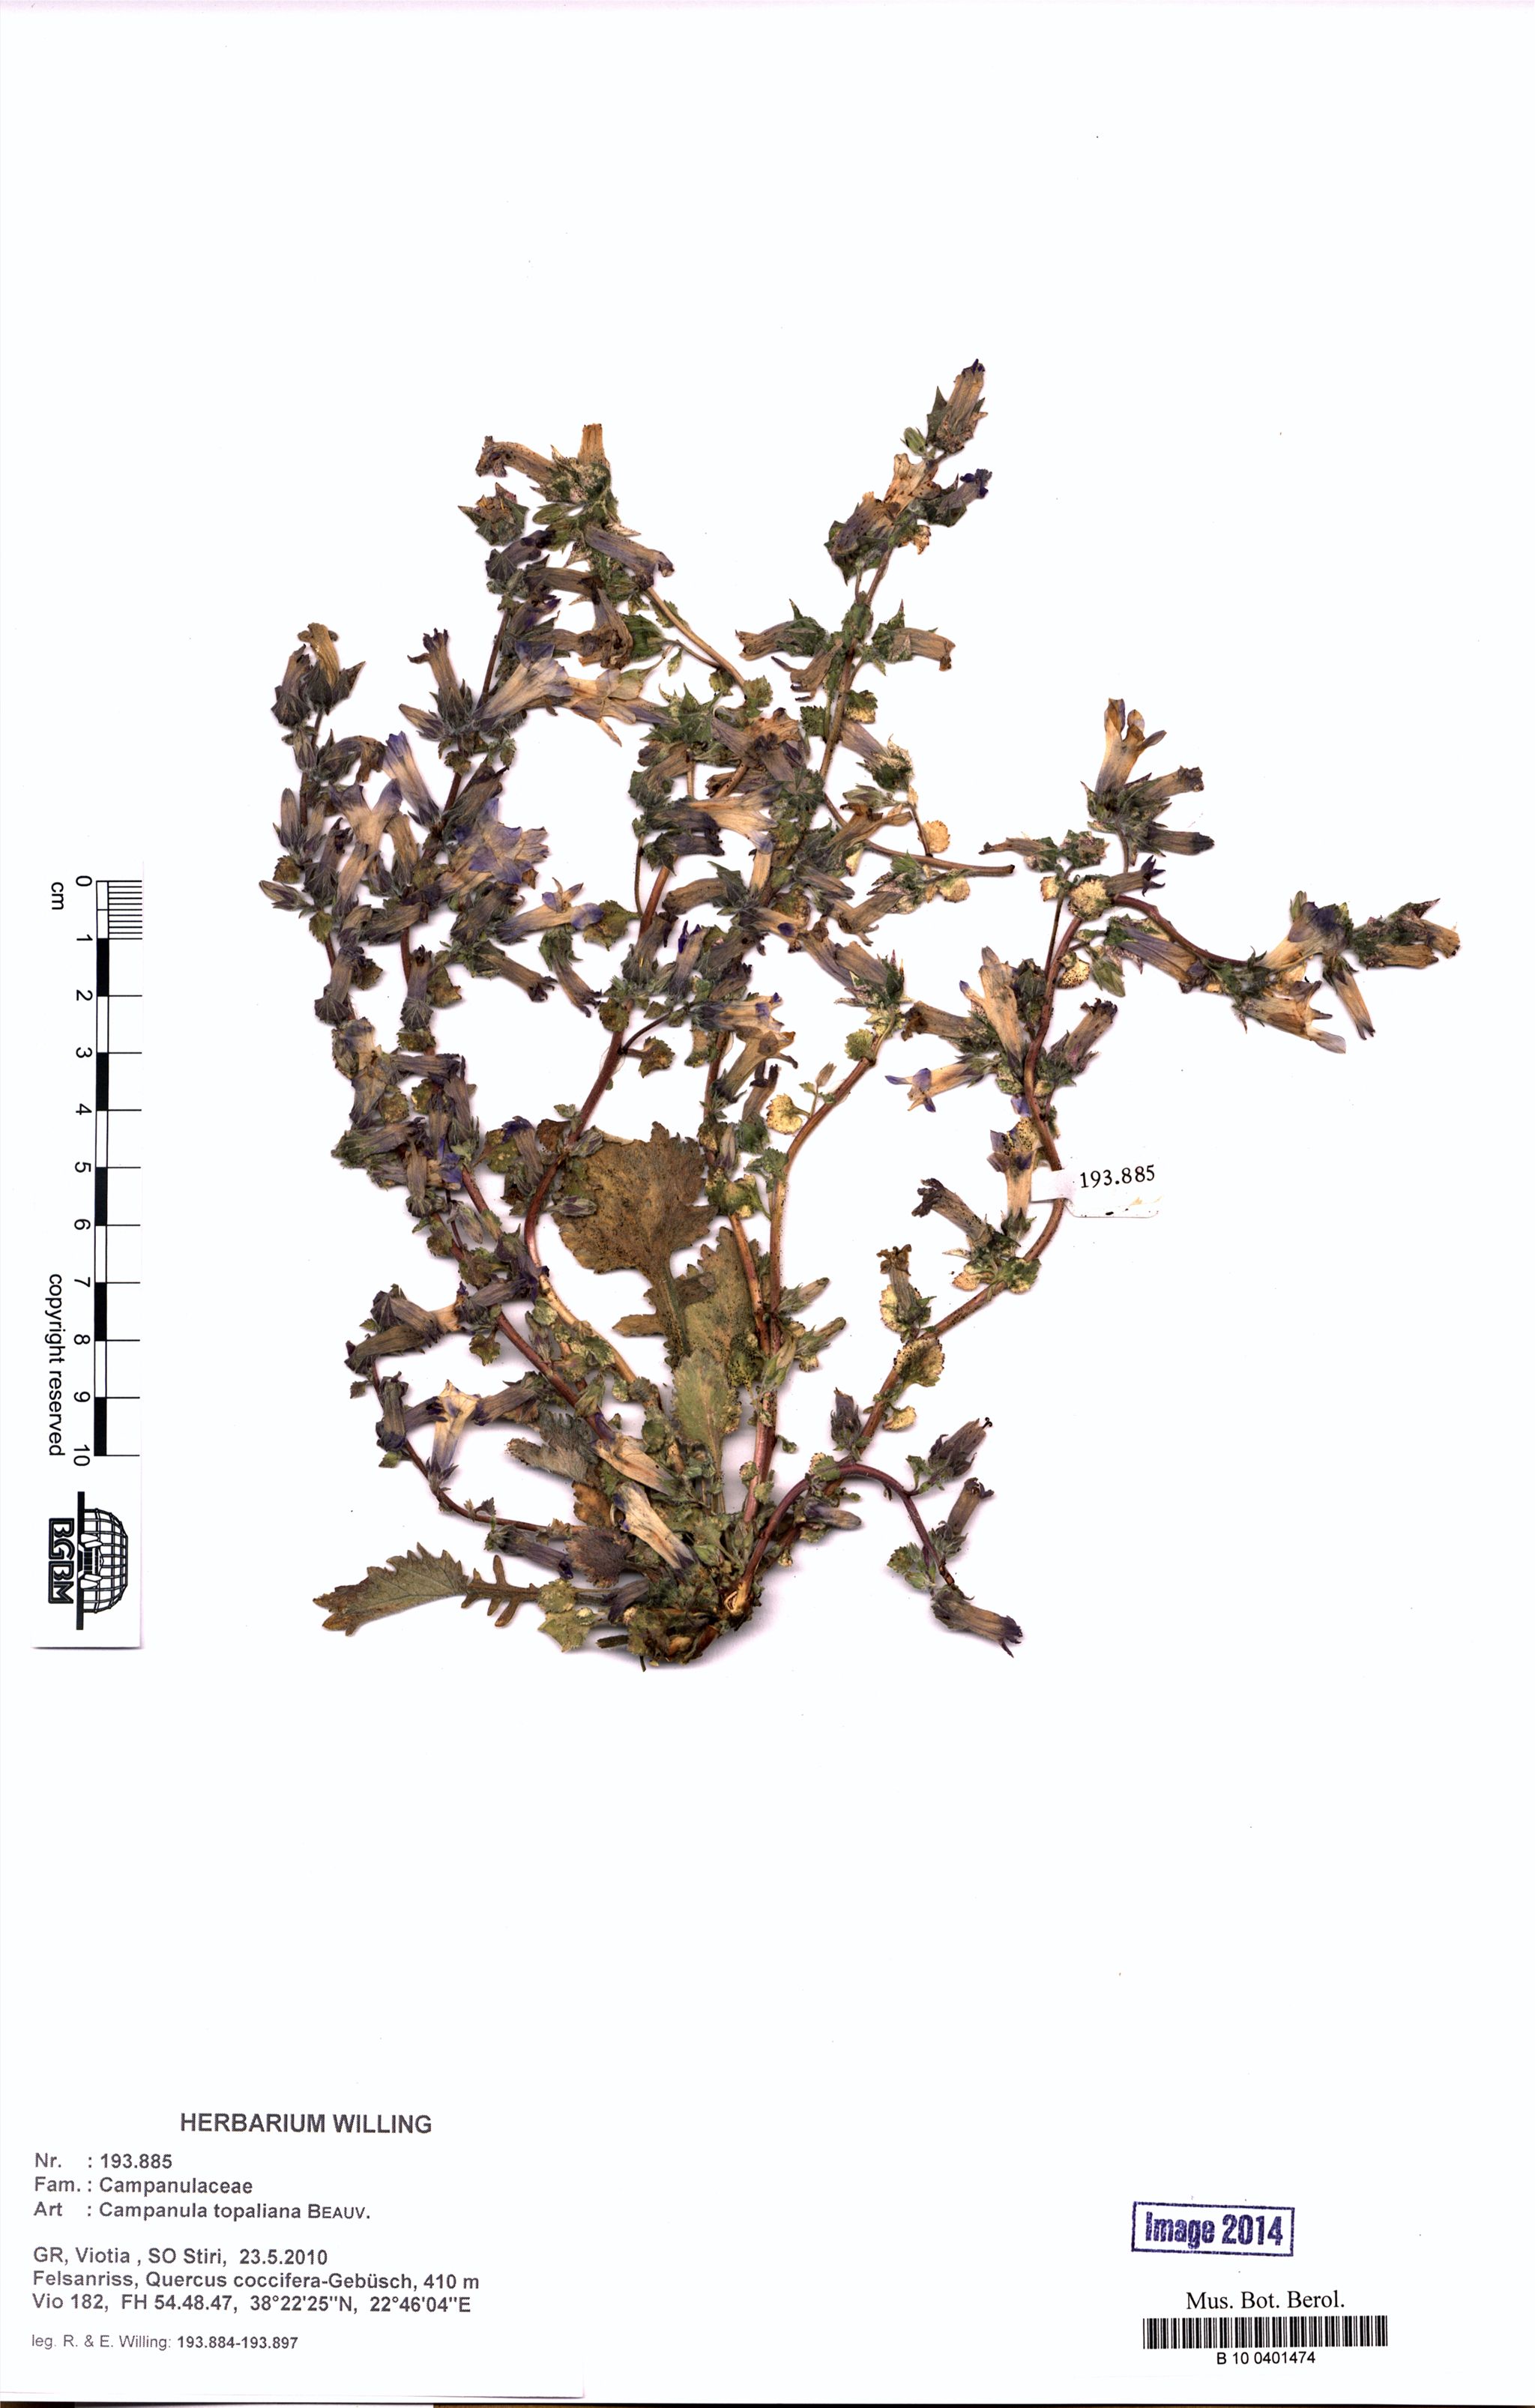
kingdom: Plantae
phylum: Tracheophyta
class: Magnoliopsida
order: Asterales
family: Campanulaceae
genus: Campanula
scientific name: Campanula topaliana
